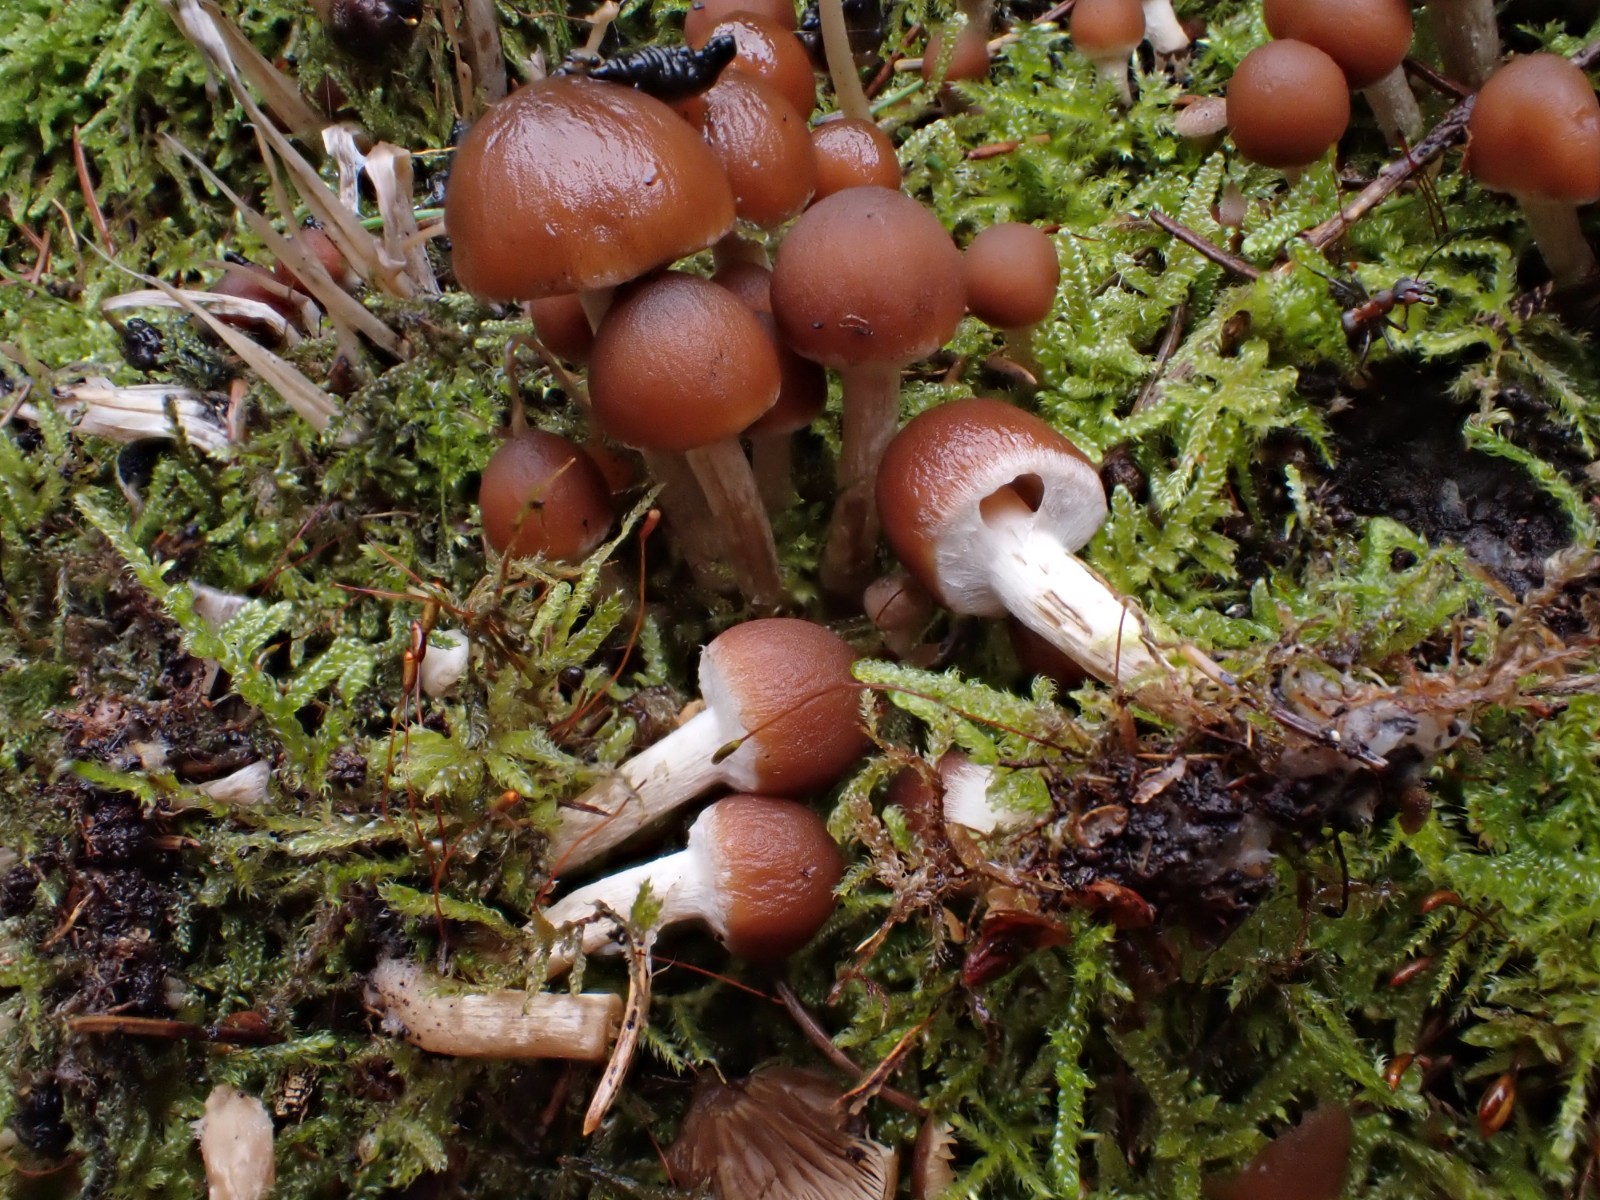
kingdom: Fungi
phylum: Basidiomycota
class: Agaricomycetes
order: Agaricales
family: Psathyrellaceae
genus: Psathyrella
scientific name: Psathyrella piluliformis
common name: lysstokket mørkhat
